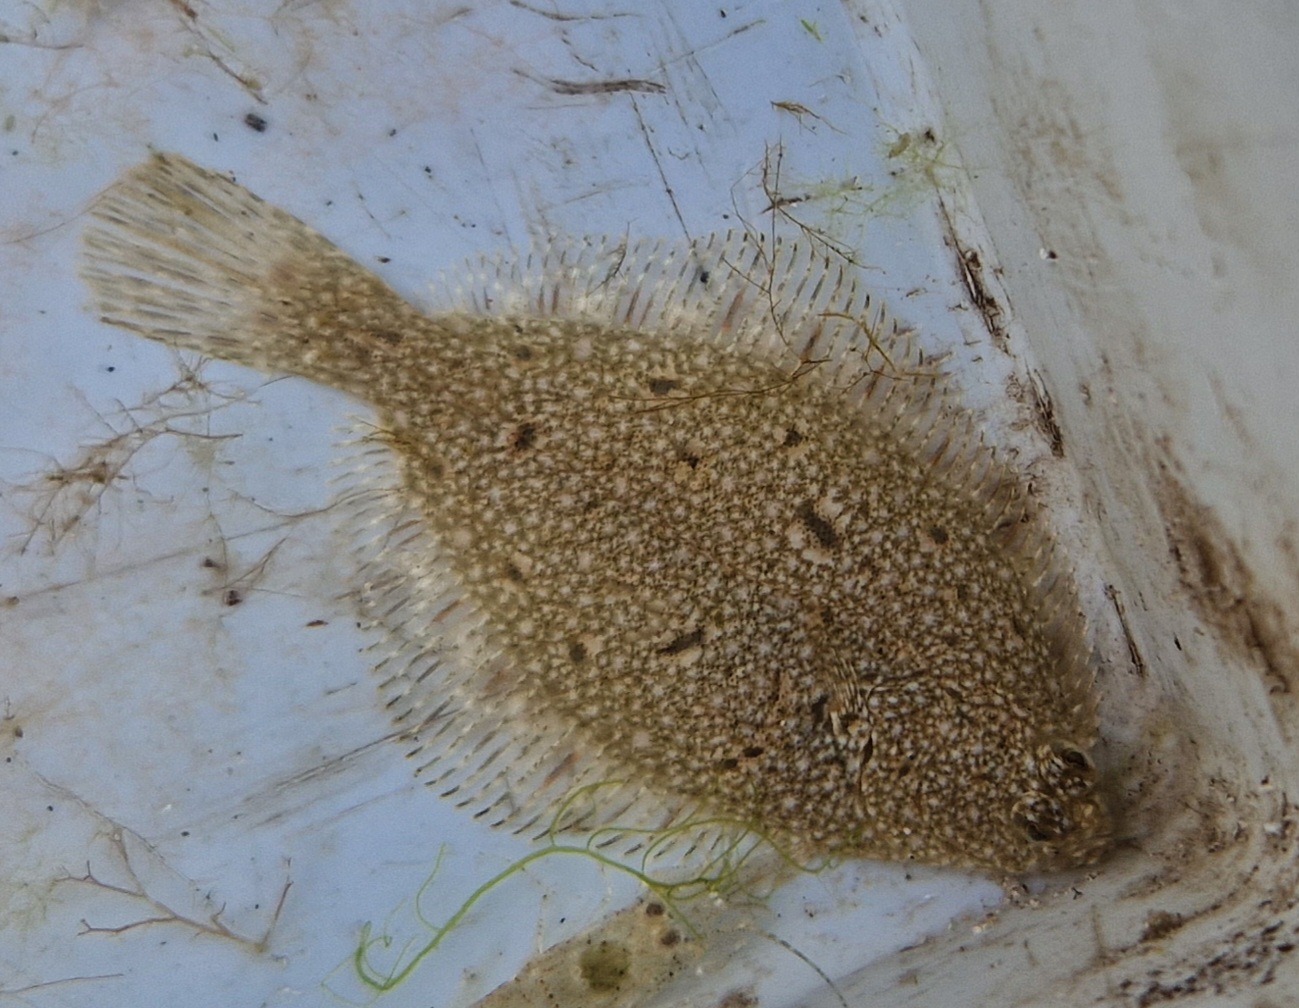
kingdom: Animalia
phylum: Chordata
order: Pleuronectiformes
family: Pleuronectidae
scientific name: Pleuronectidae
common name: Rødspættefamilien
